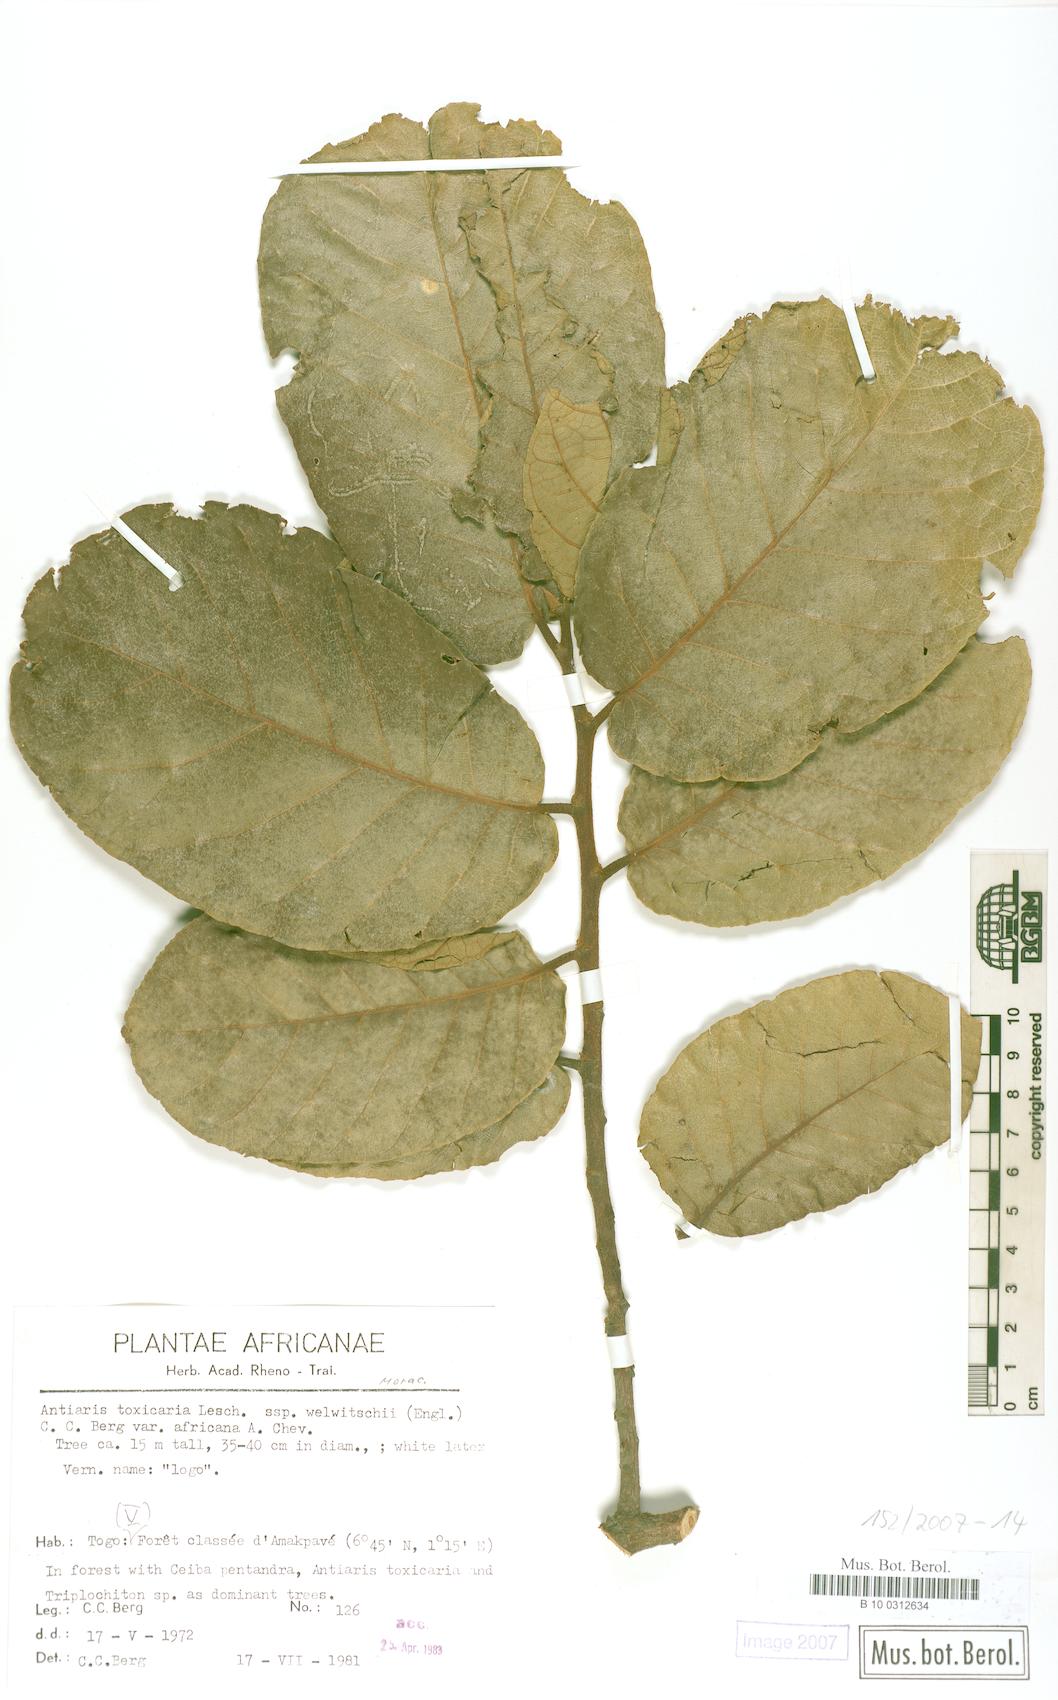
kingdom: Plantae
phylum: Tracheophyta
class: Magnoliopsida
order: Rosales
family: Moraceae
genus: Antiaris
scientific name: Antiaris toxicaria
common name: Sackingtree
